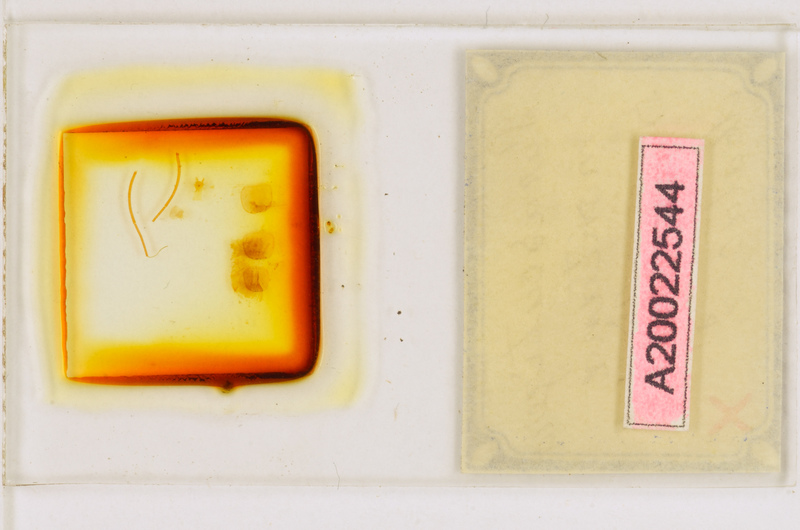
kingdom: Animalia
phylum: Arthropoda
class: Chilopoda
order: Scutigeromorpha
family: Scutigeridae
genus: Parascutigera
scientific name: Parascutigera montana
